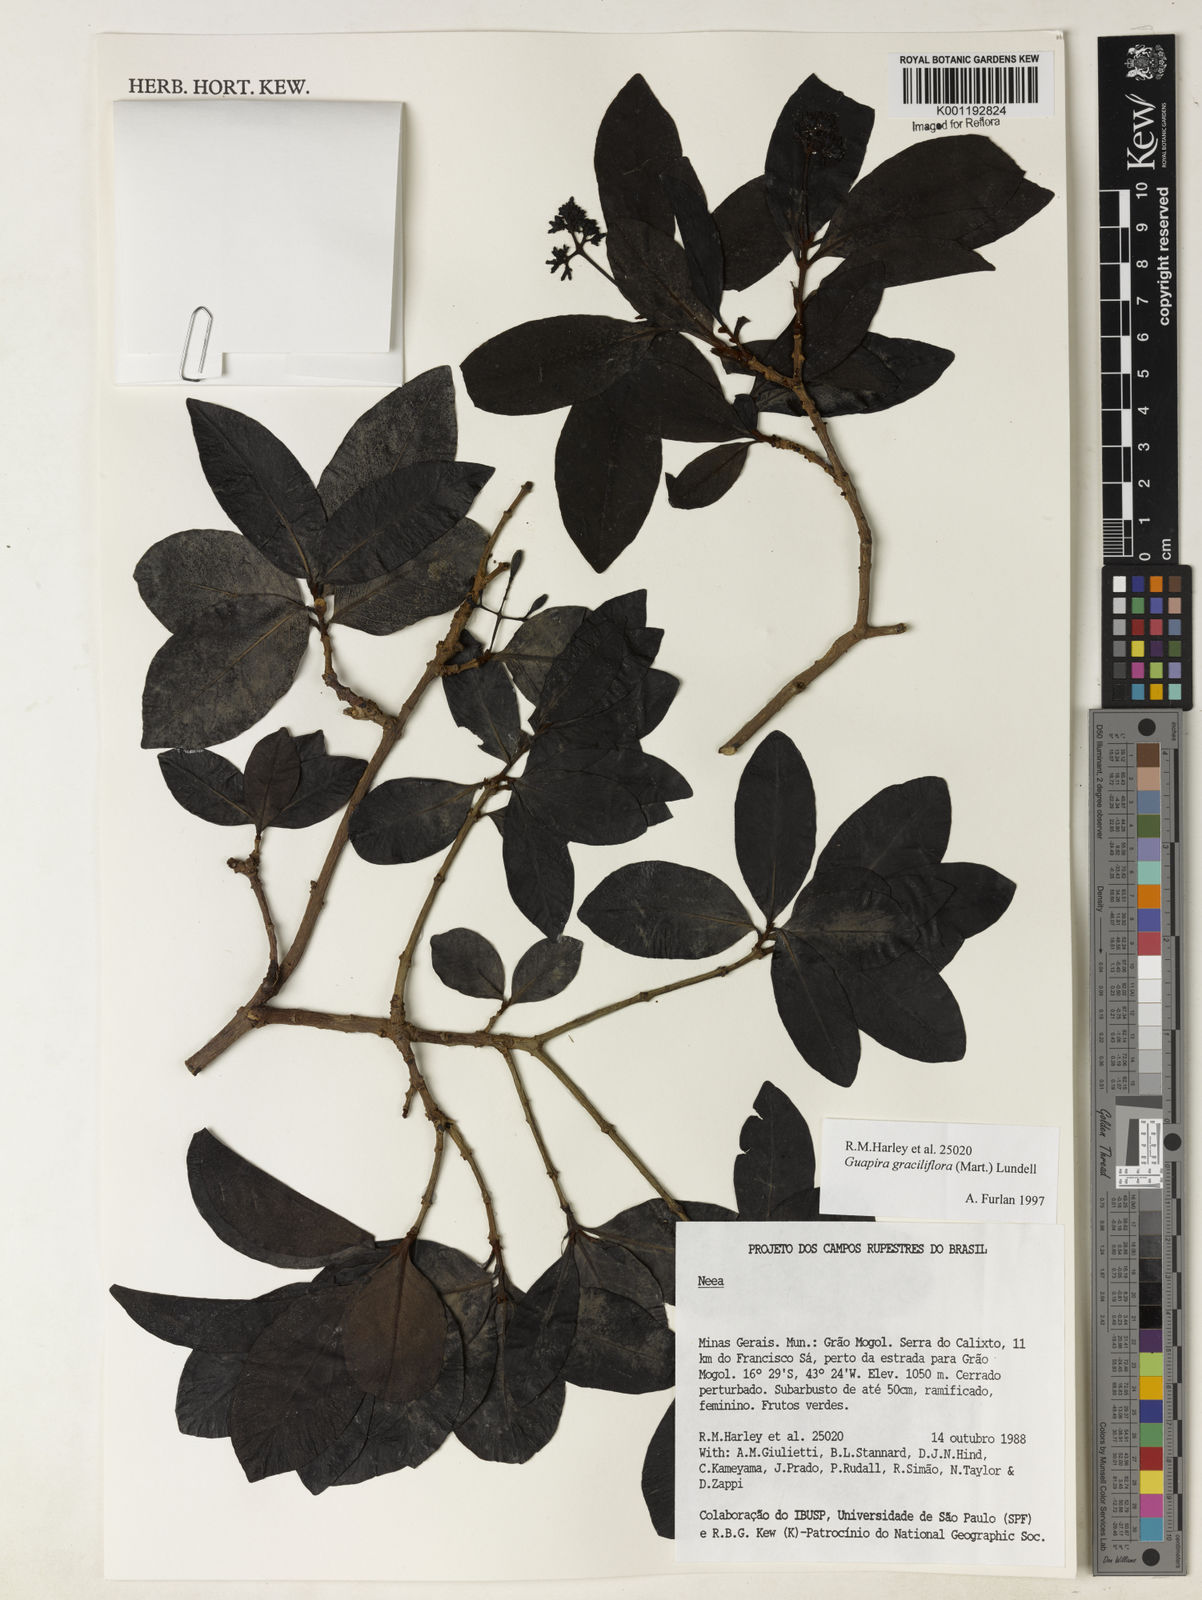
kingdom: Plantae
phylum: Tracheophyta
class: Magnoliopsida
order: Caryophyllales
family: Nyctaginaceae
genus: Guapira
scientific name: Guapira graciliflora
